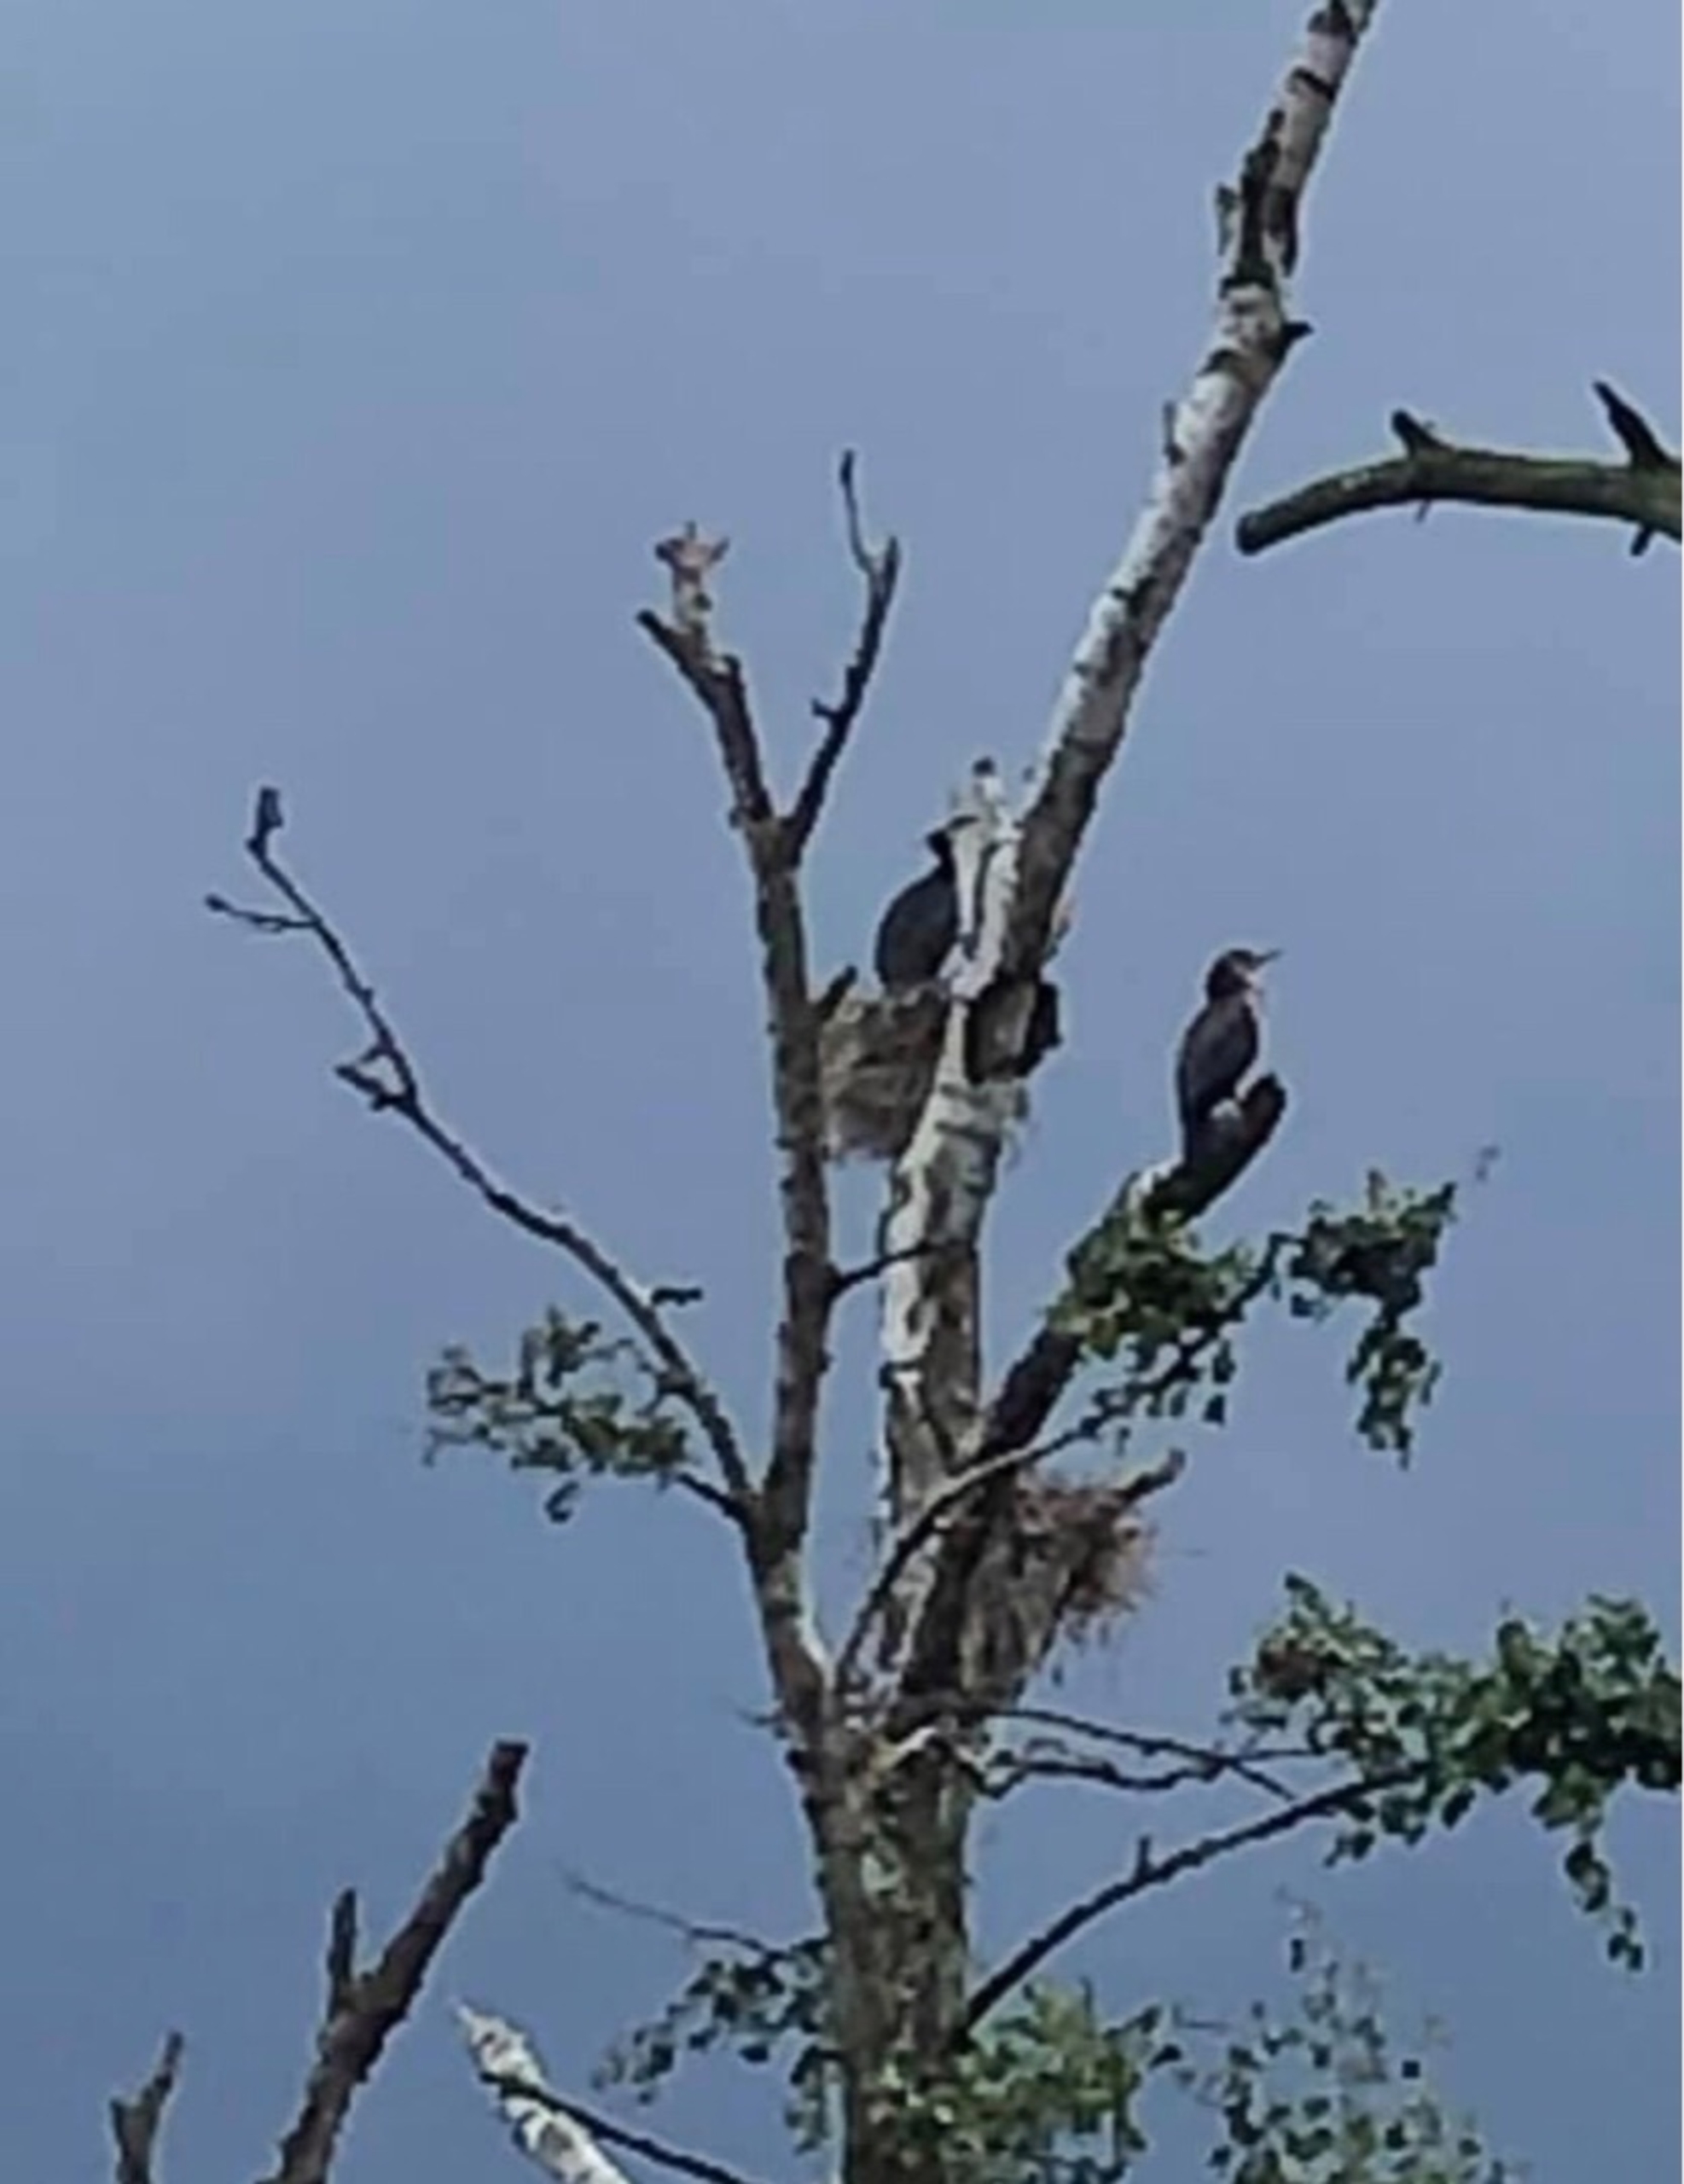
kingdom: Animalia
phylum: Chordata
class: Aves
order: Suliformes
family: Phalacrocoracidae
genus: Phalacrocorax
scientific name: Phalacrocorax carbo
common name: Skarv
